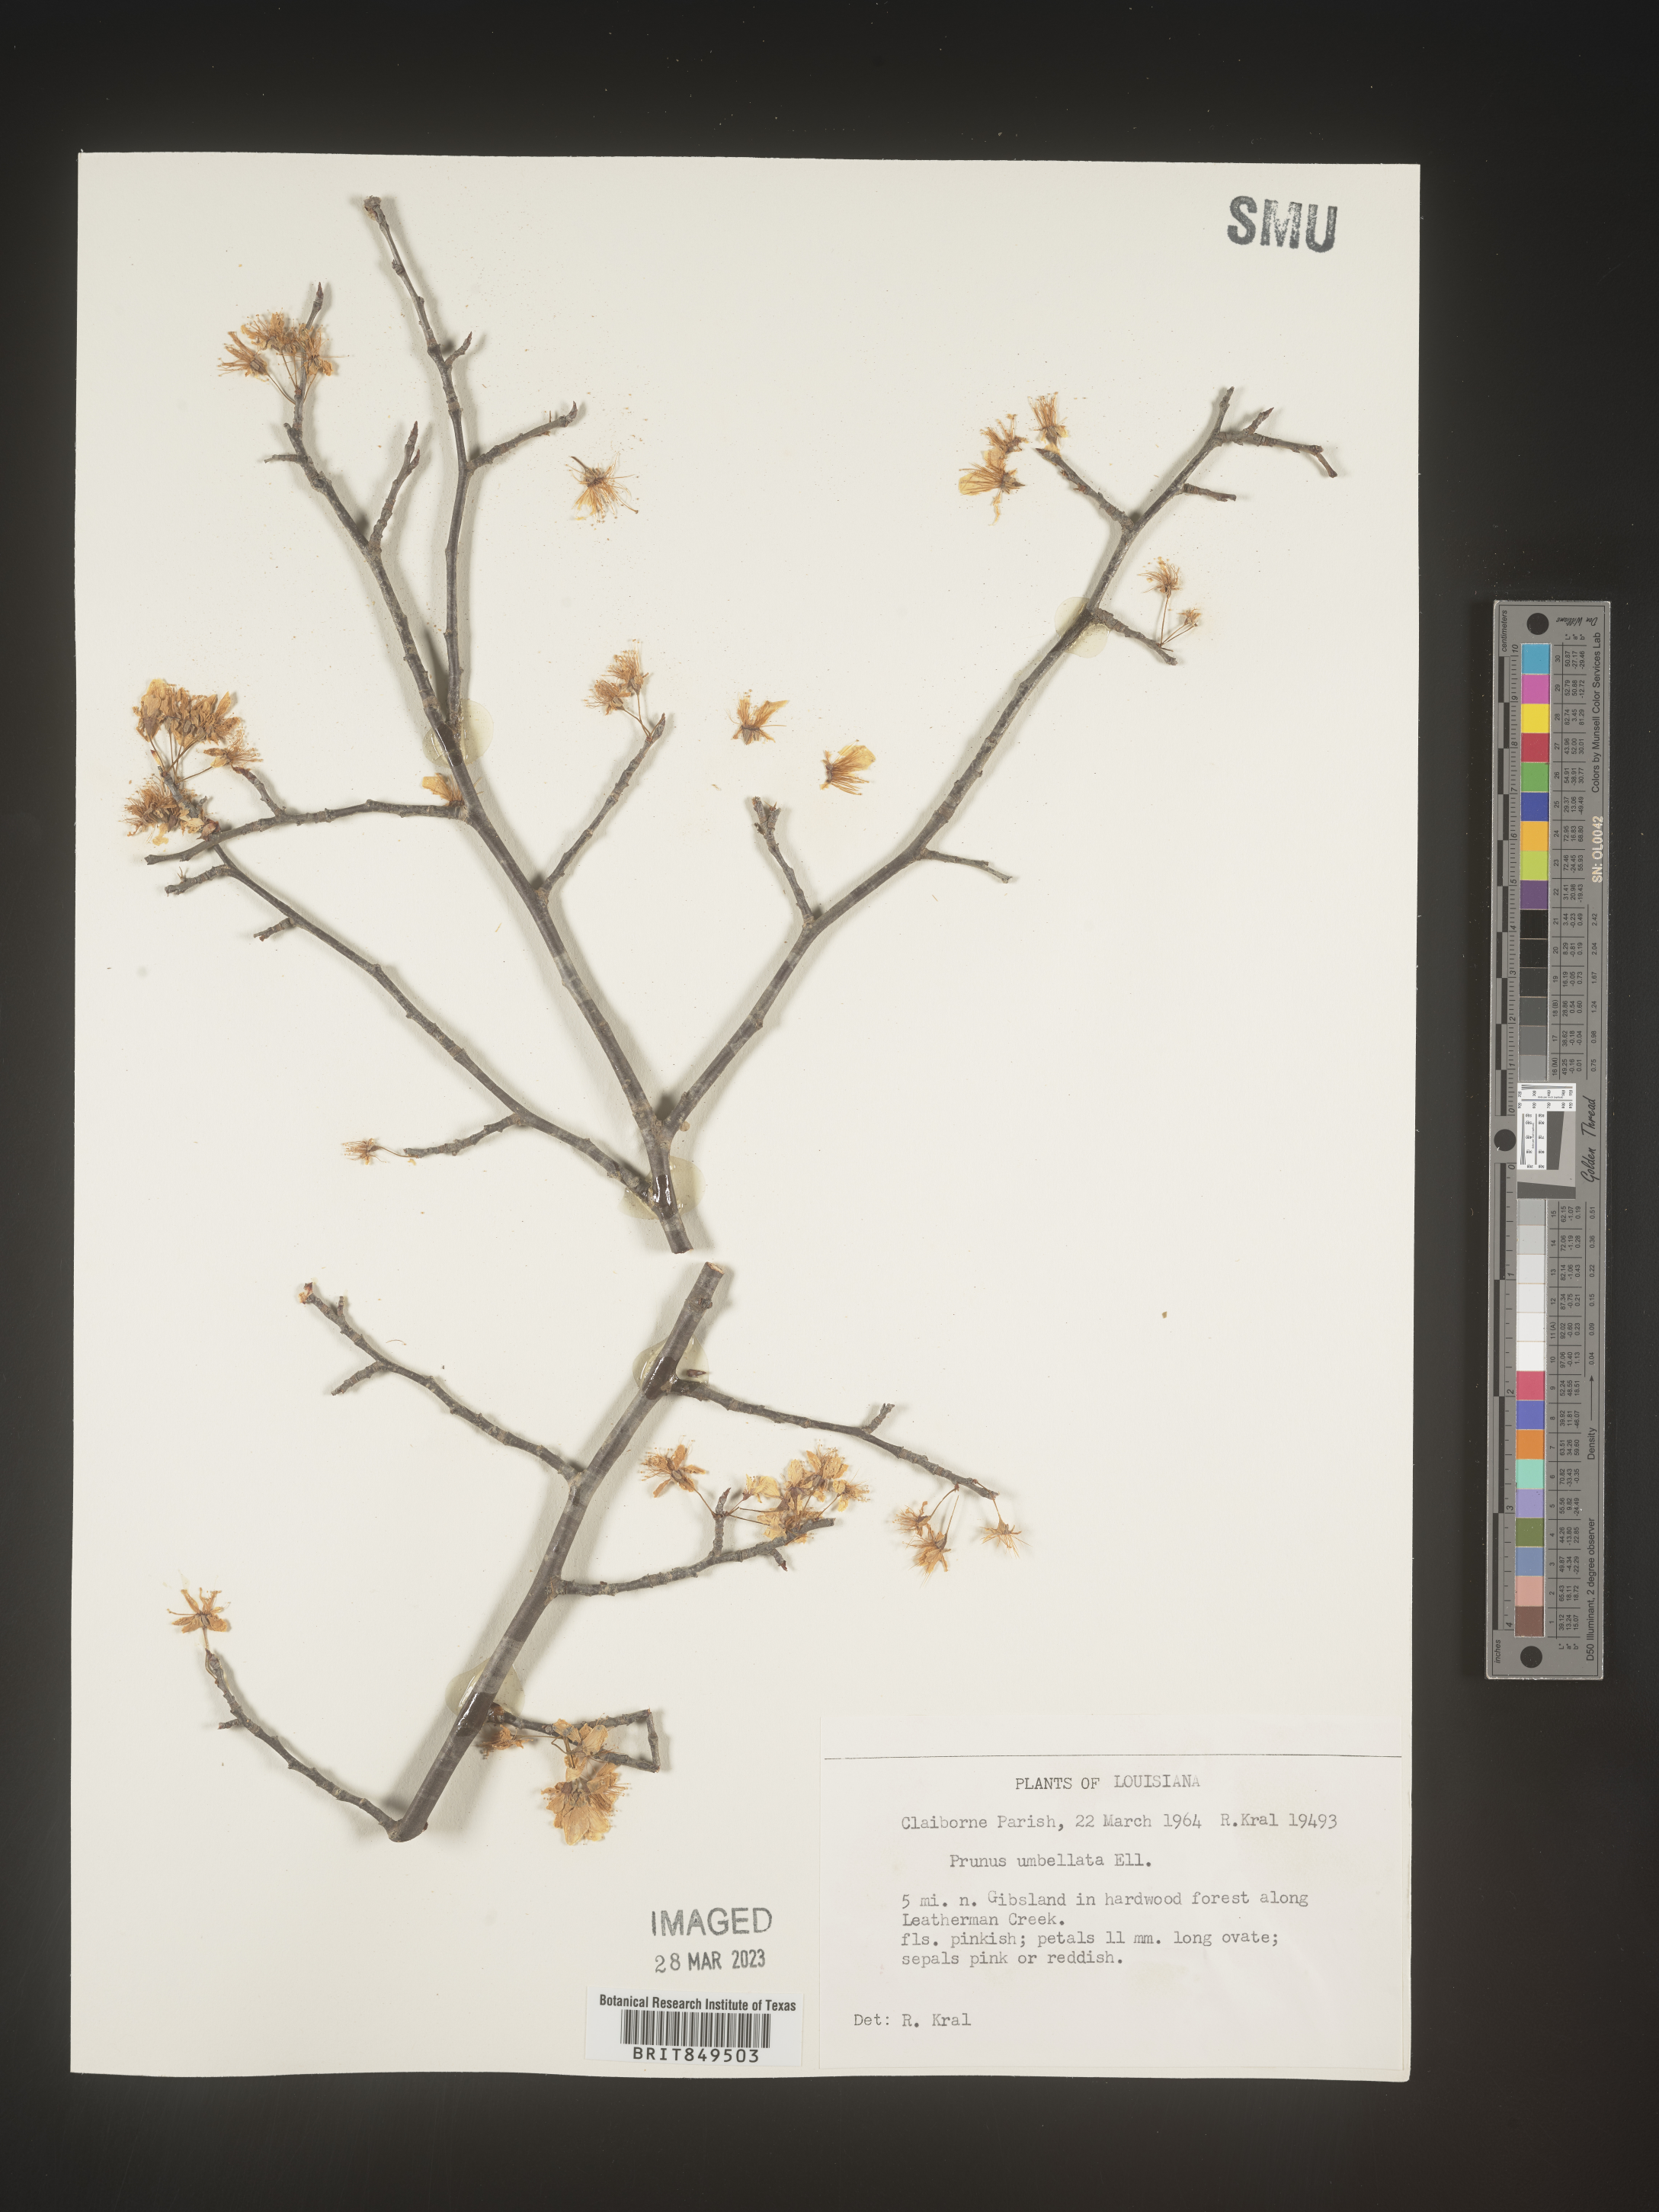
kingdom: Plantae
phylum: Tracheophyta
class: Magnoliopsida
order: Rosales
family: Rosaceae
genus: Prunus
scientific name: Prunus umbellata
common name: Allegheny plum
